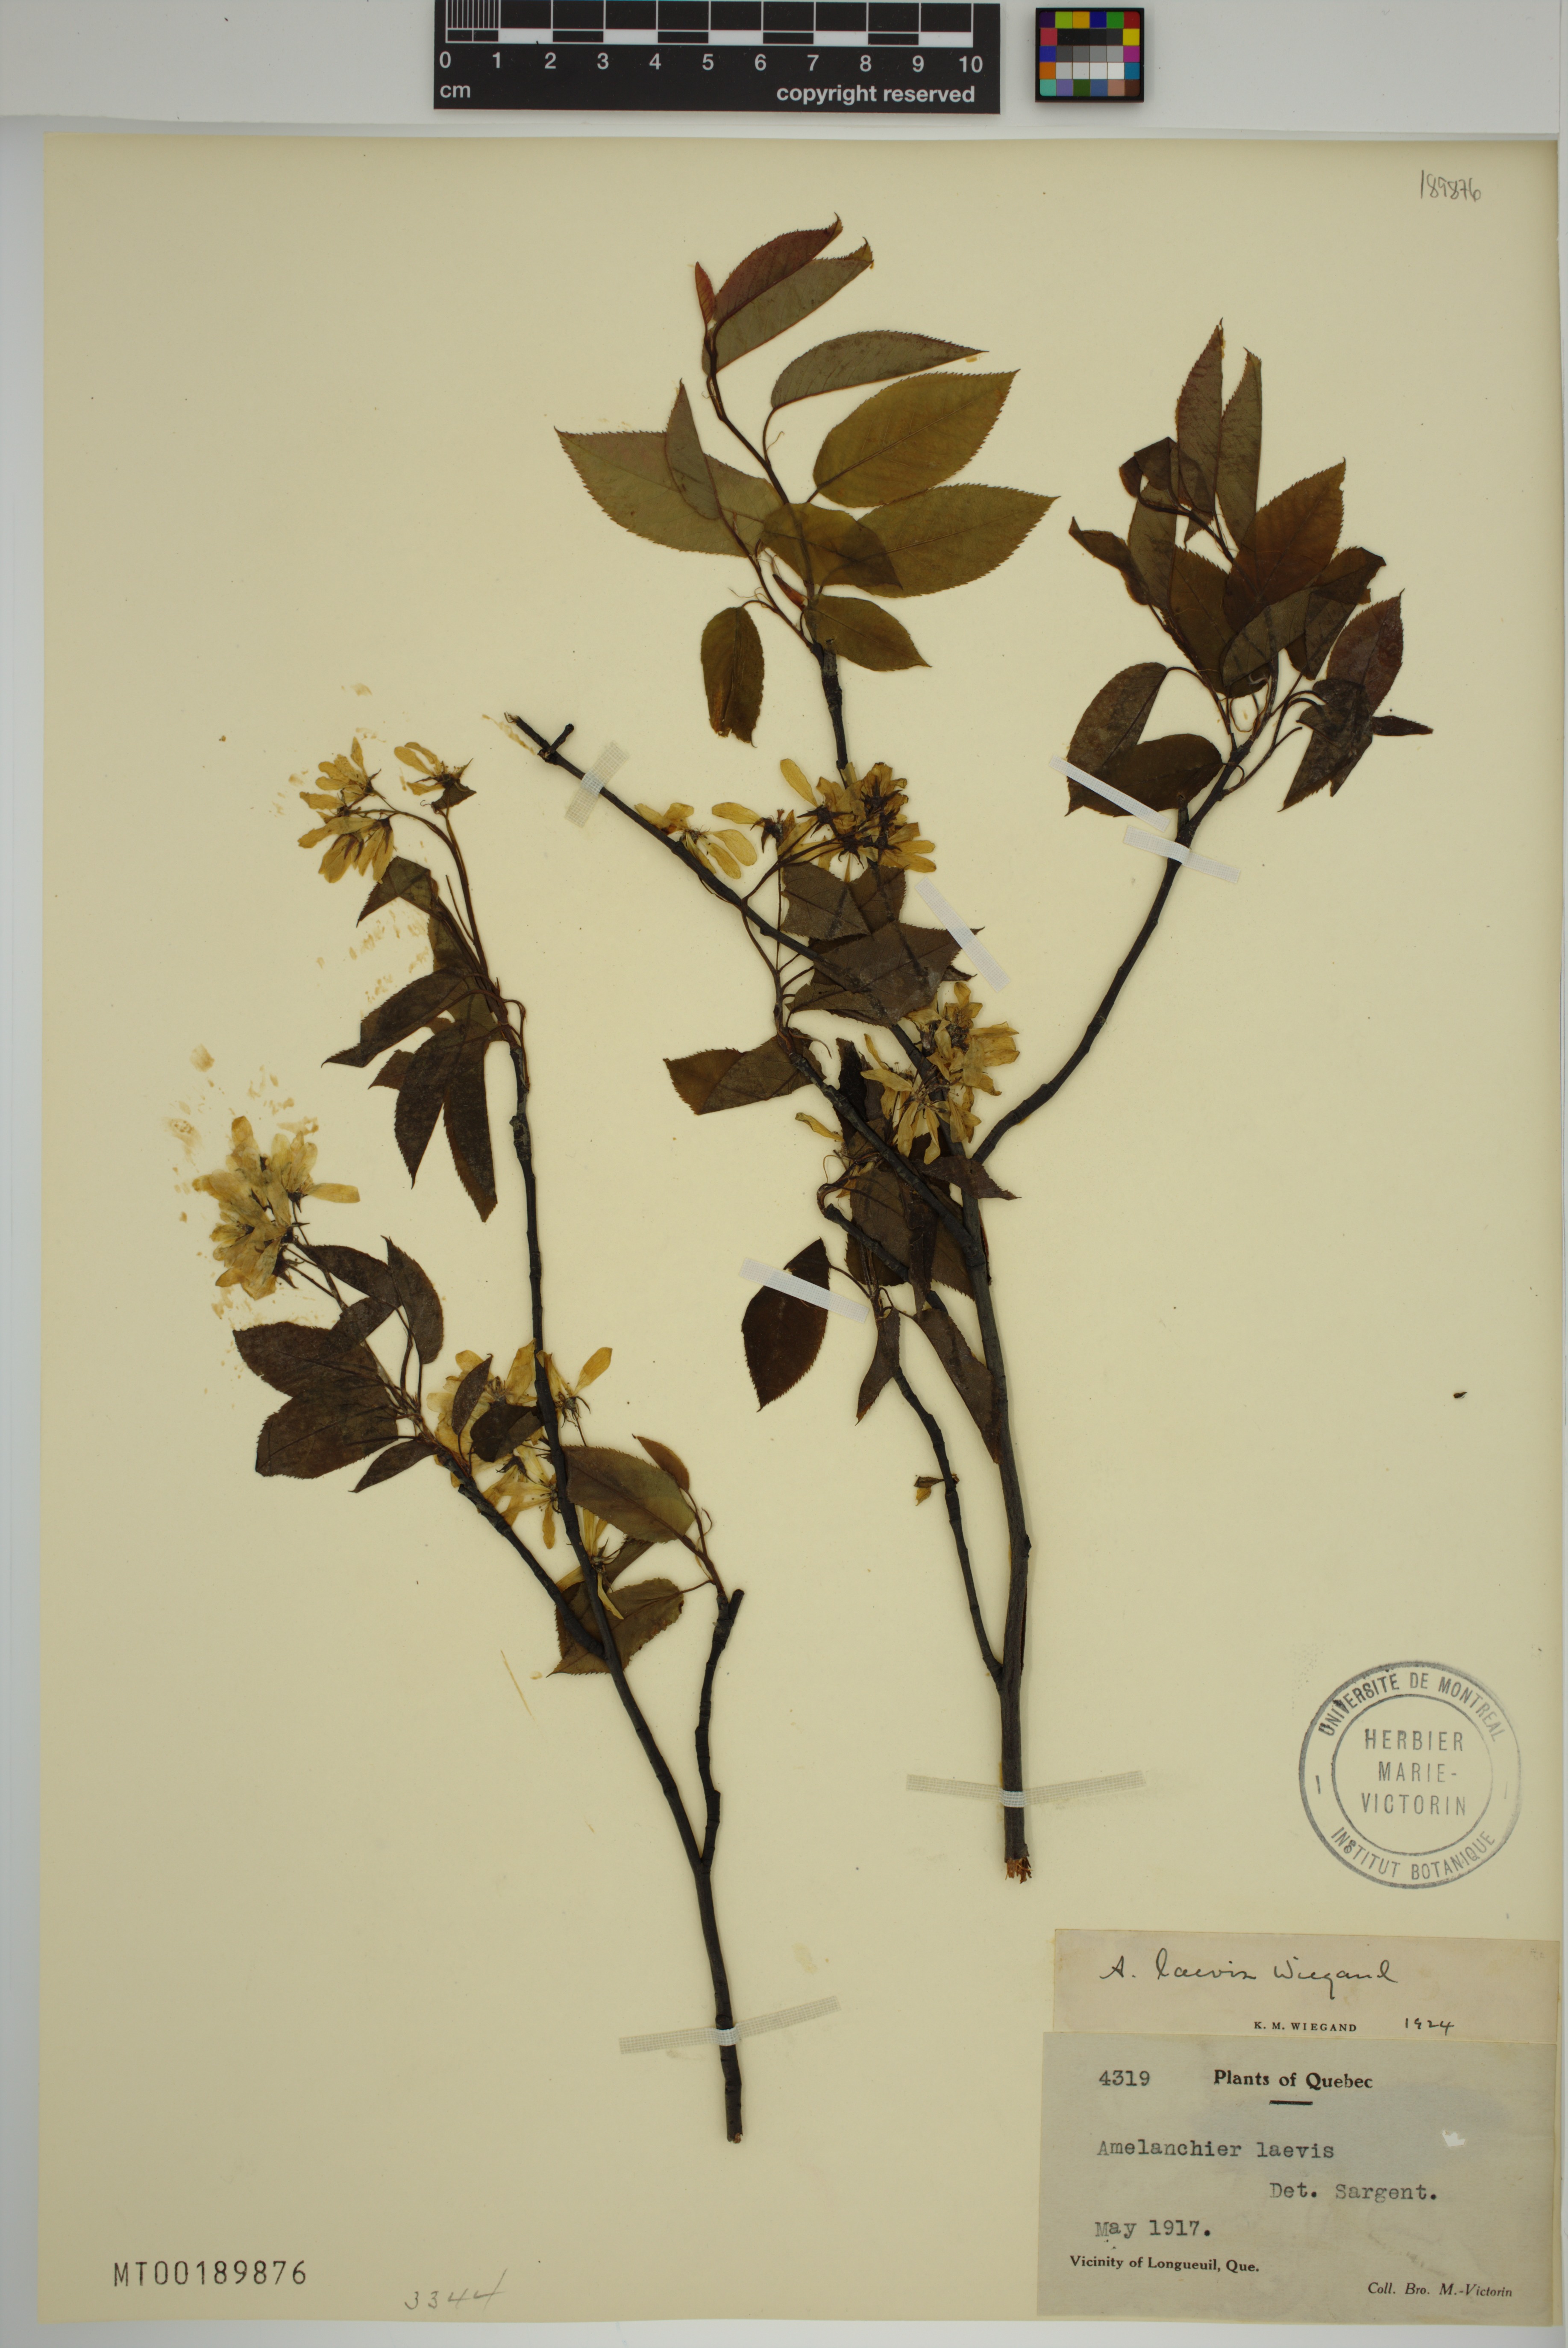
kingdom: Plantae
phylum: Tracheophyta
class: Magnoliopsida
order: Rosales
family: Rosaceae
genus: Amelanchier
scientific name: Amelanchier laevis
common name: Allegheny serviceberry
